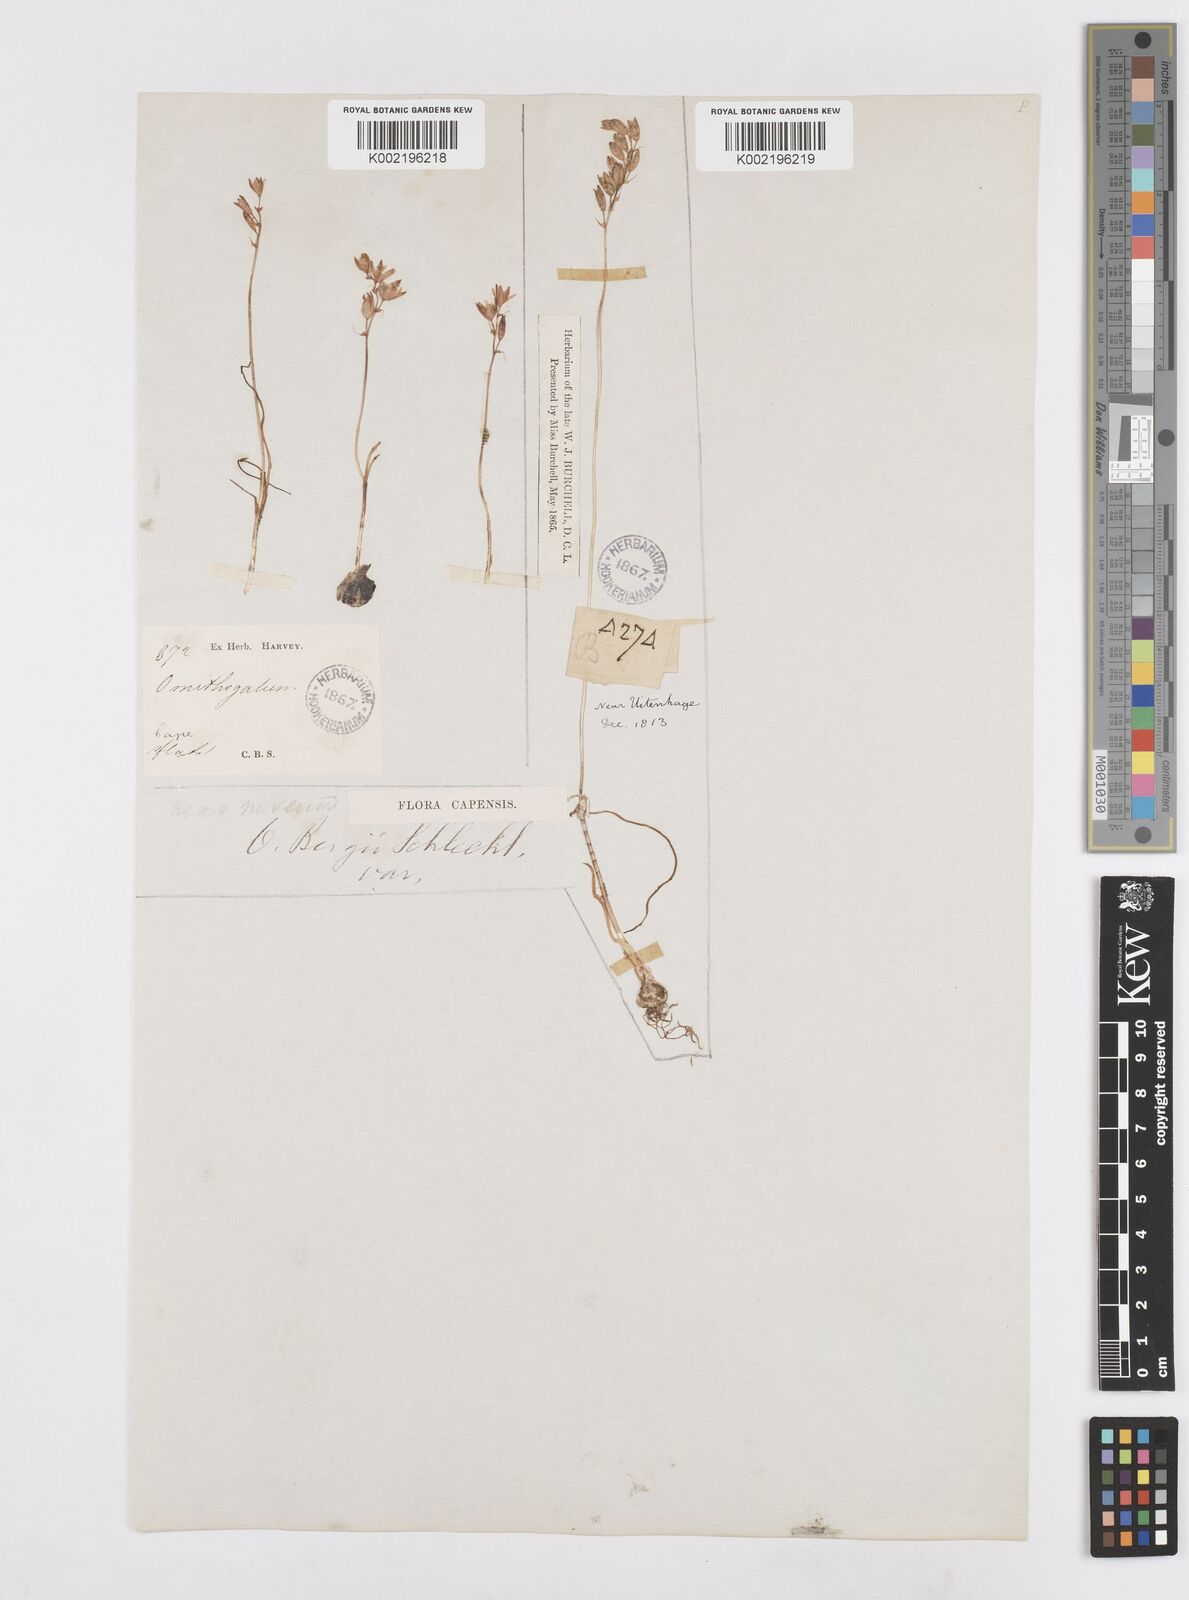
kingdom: Plantae
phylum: Tracheophyta
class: Liliopsida
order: Asparagales
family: Asparagaceae
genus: Ornithogalum
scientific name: Ornithogalum hispidum
